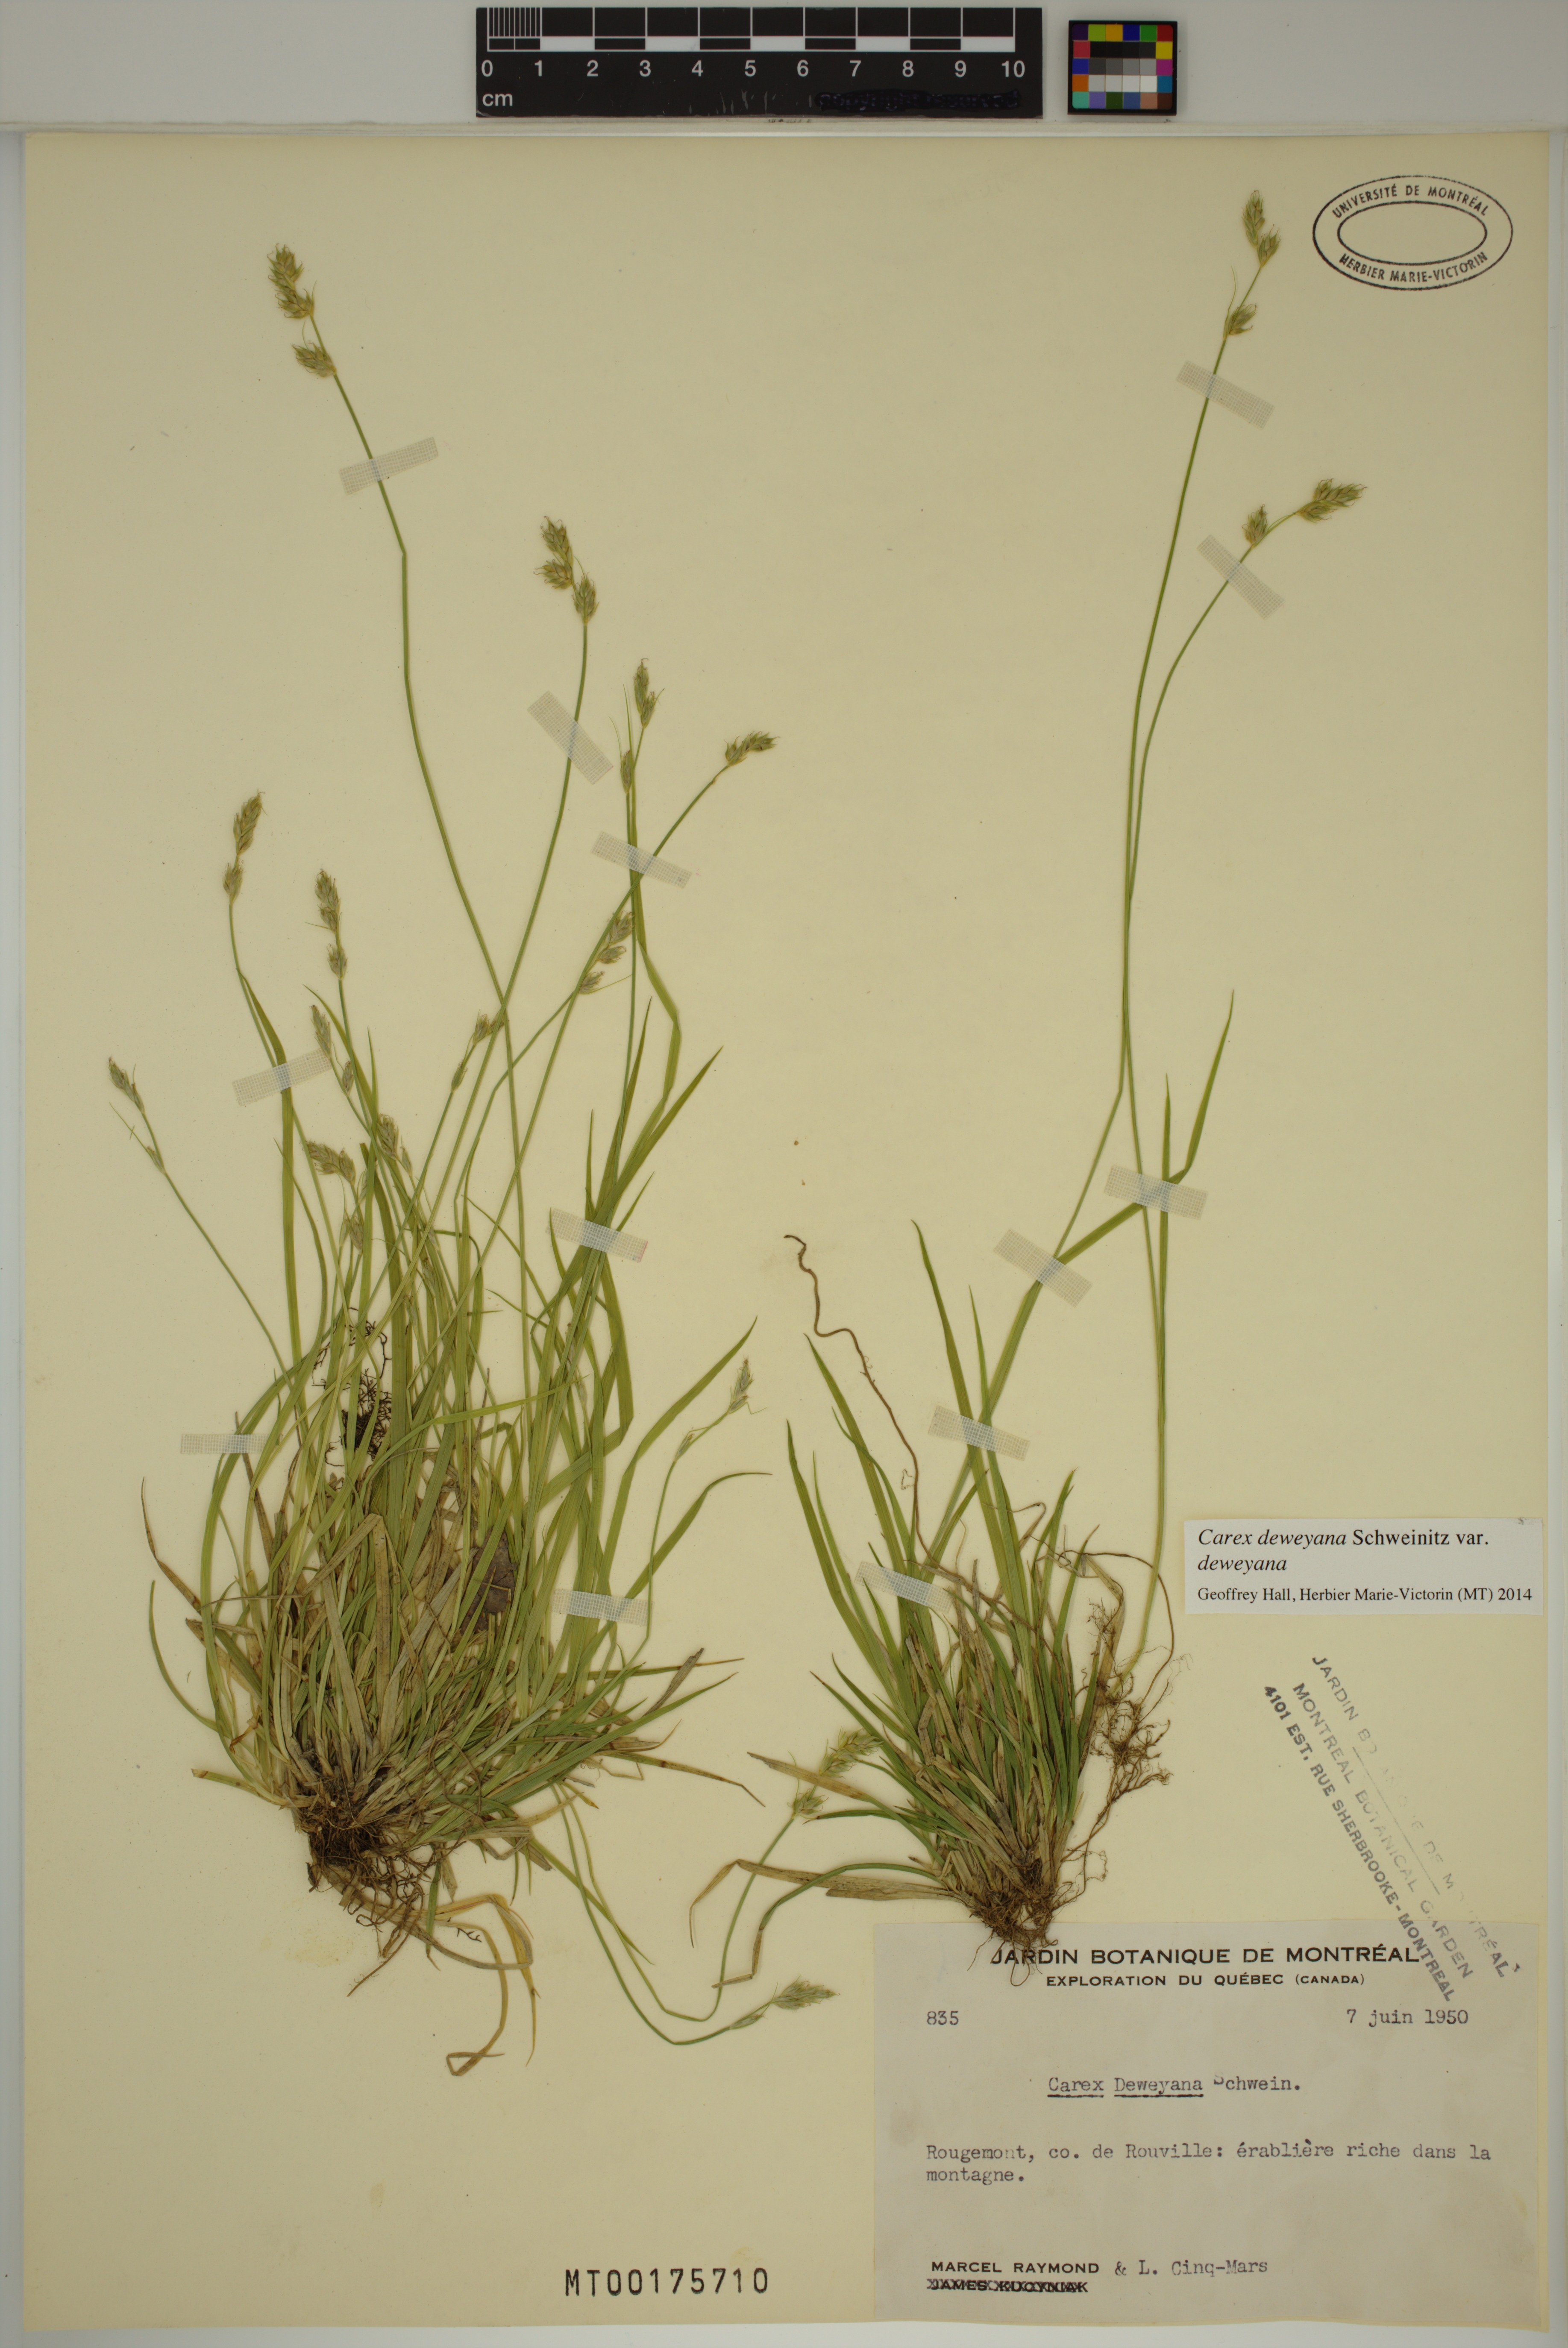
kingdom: Plantae
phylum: Tracheophyta
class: Liliopsida
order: Poales
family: Cyperaceae
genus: Carex
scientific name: Carex deweyana
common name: Dewey's sedge
